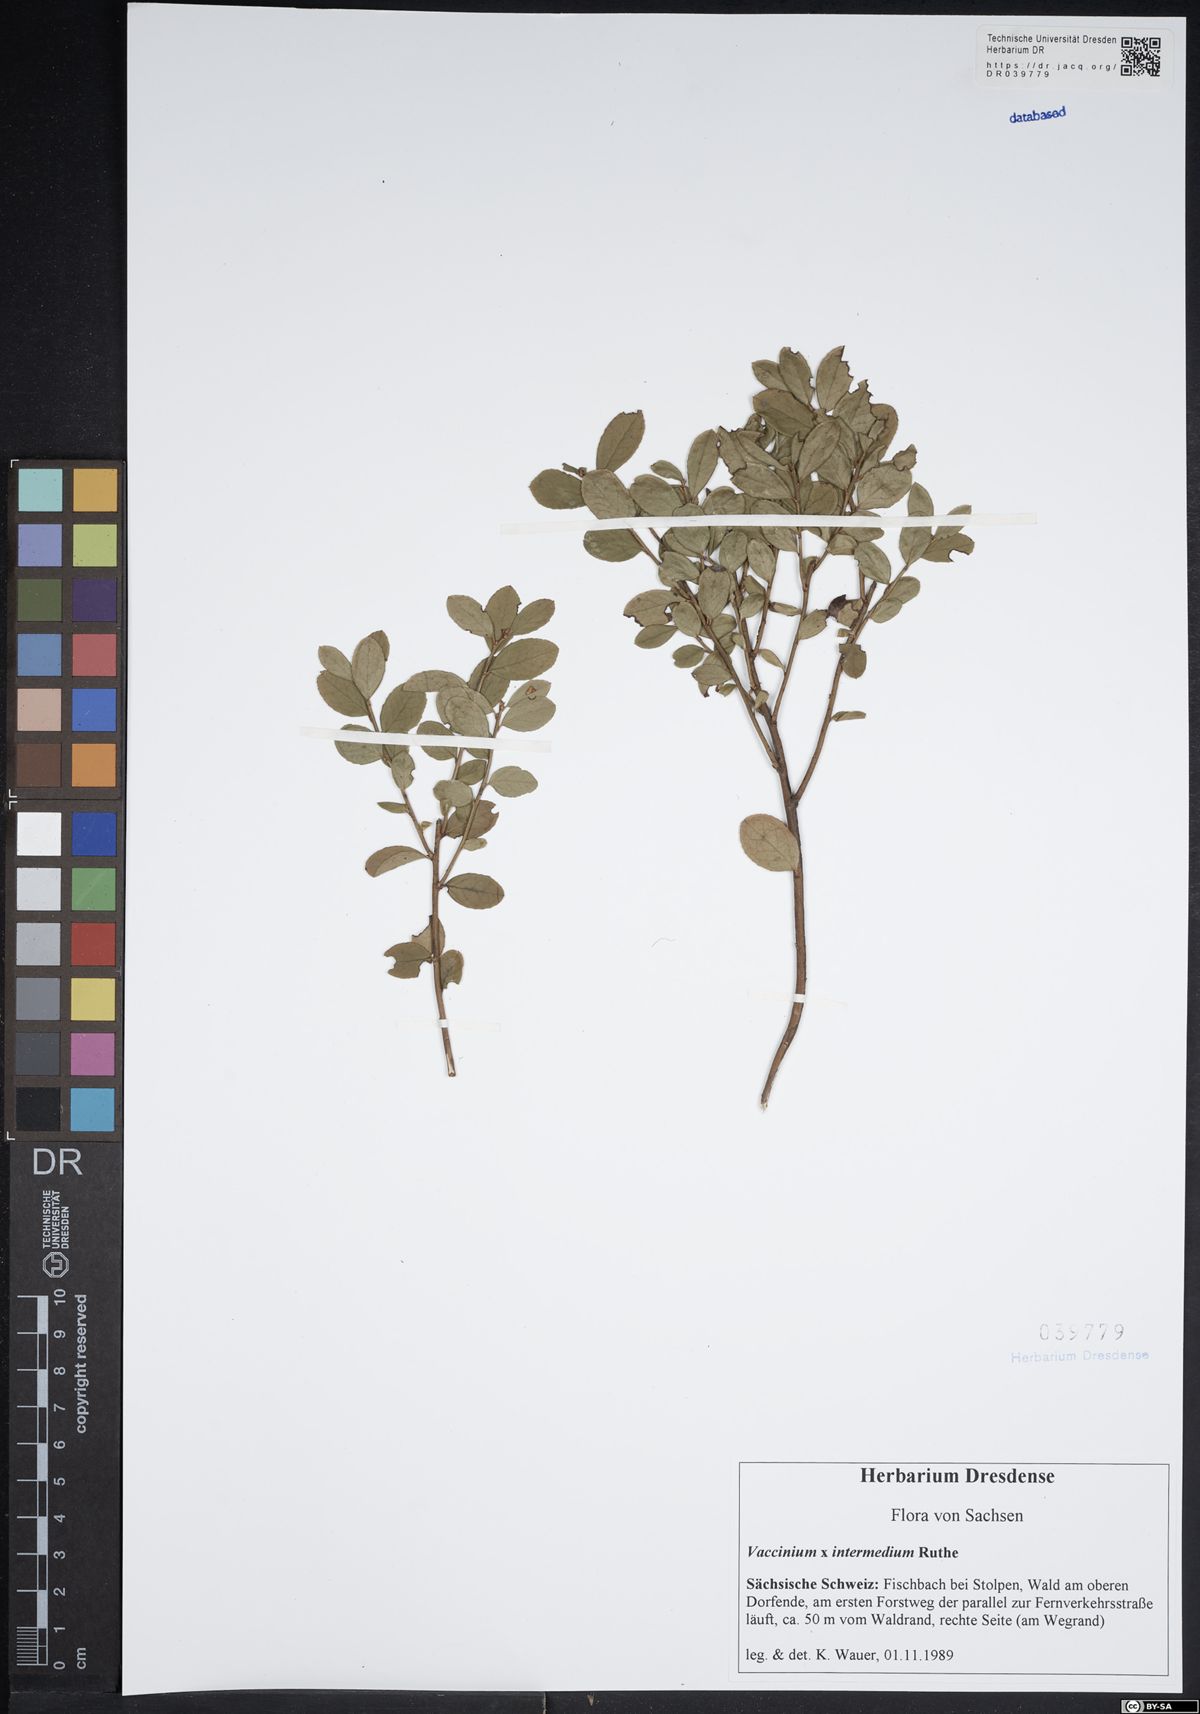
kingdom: Plantae
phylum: Tracheophyta
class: Magnoliopsida
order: Ericales
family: Ericaceae
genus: Vaccinium
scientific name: Vaccinium intermedium
